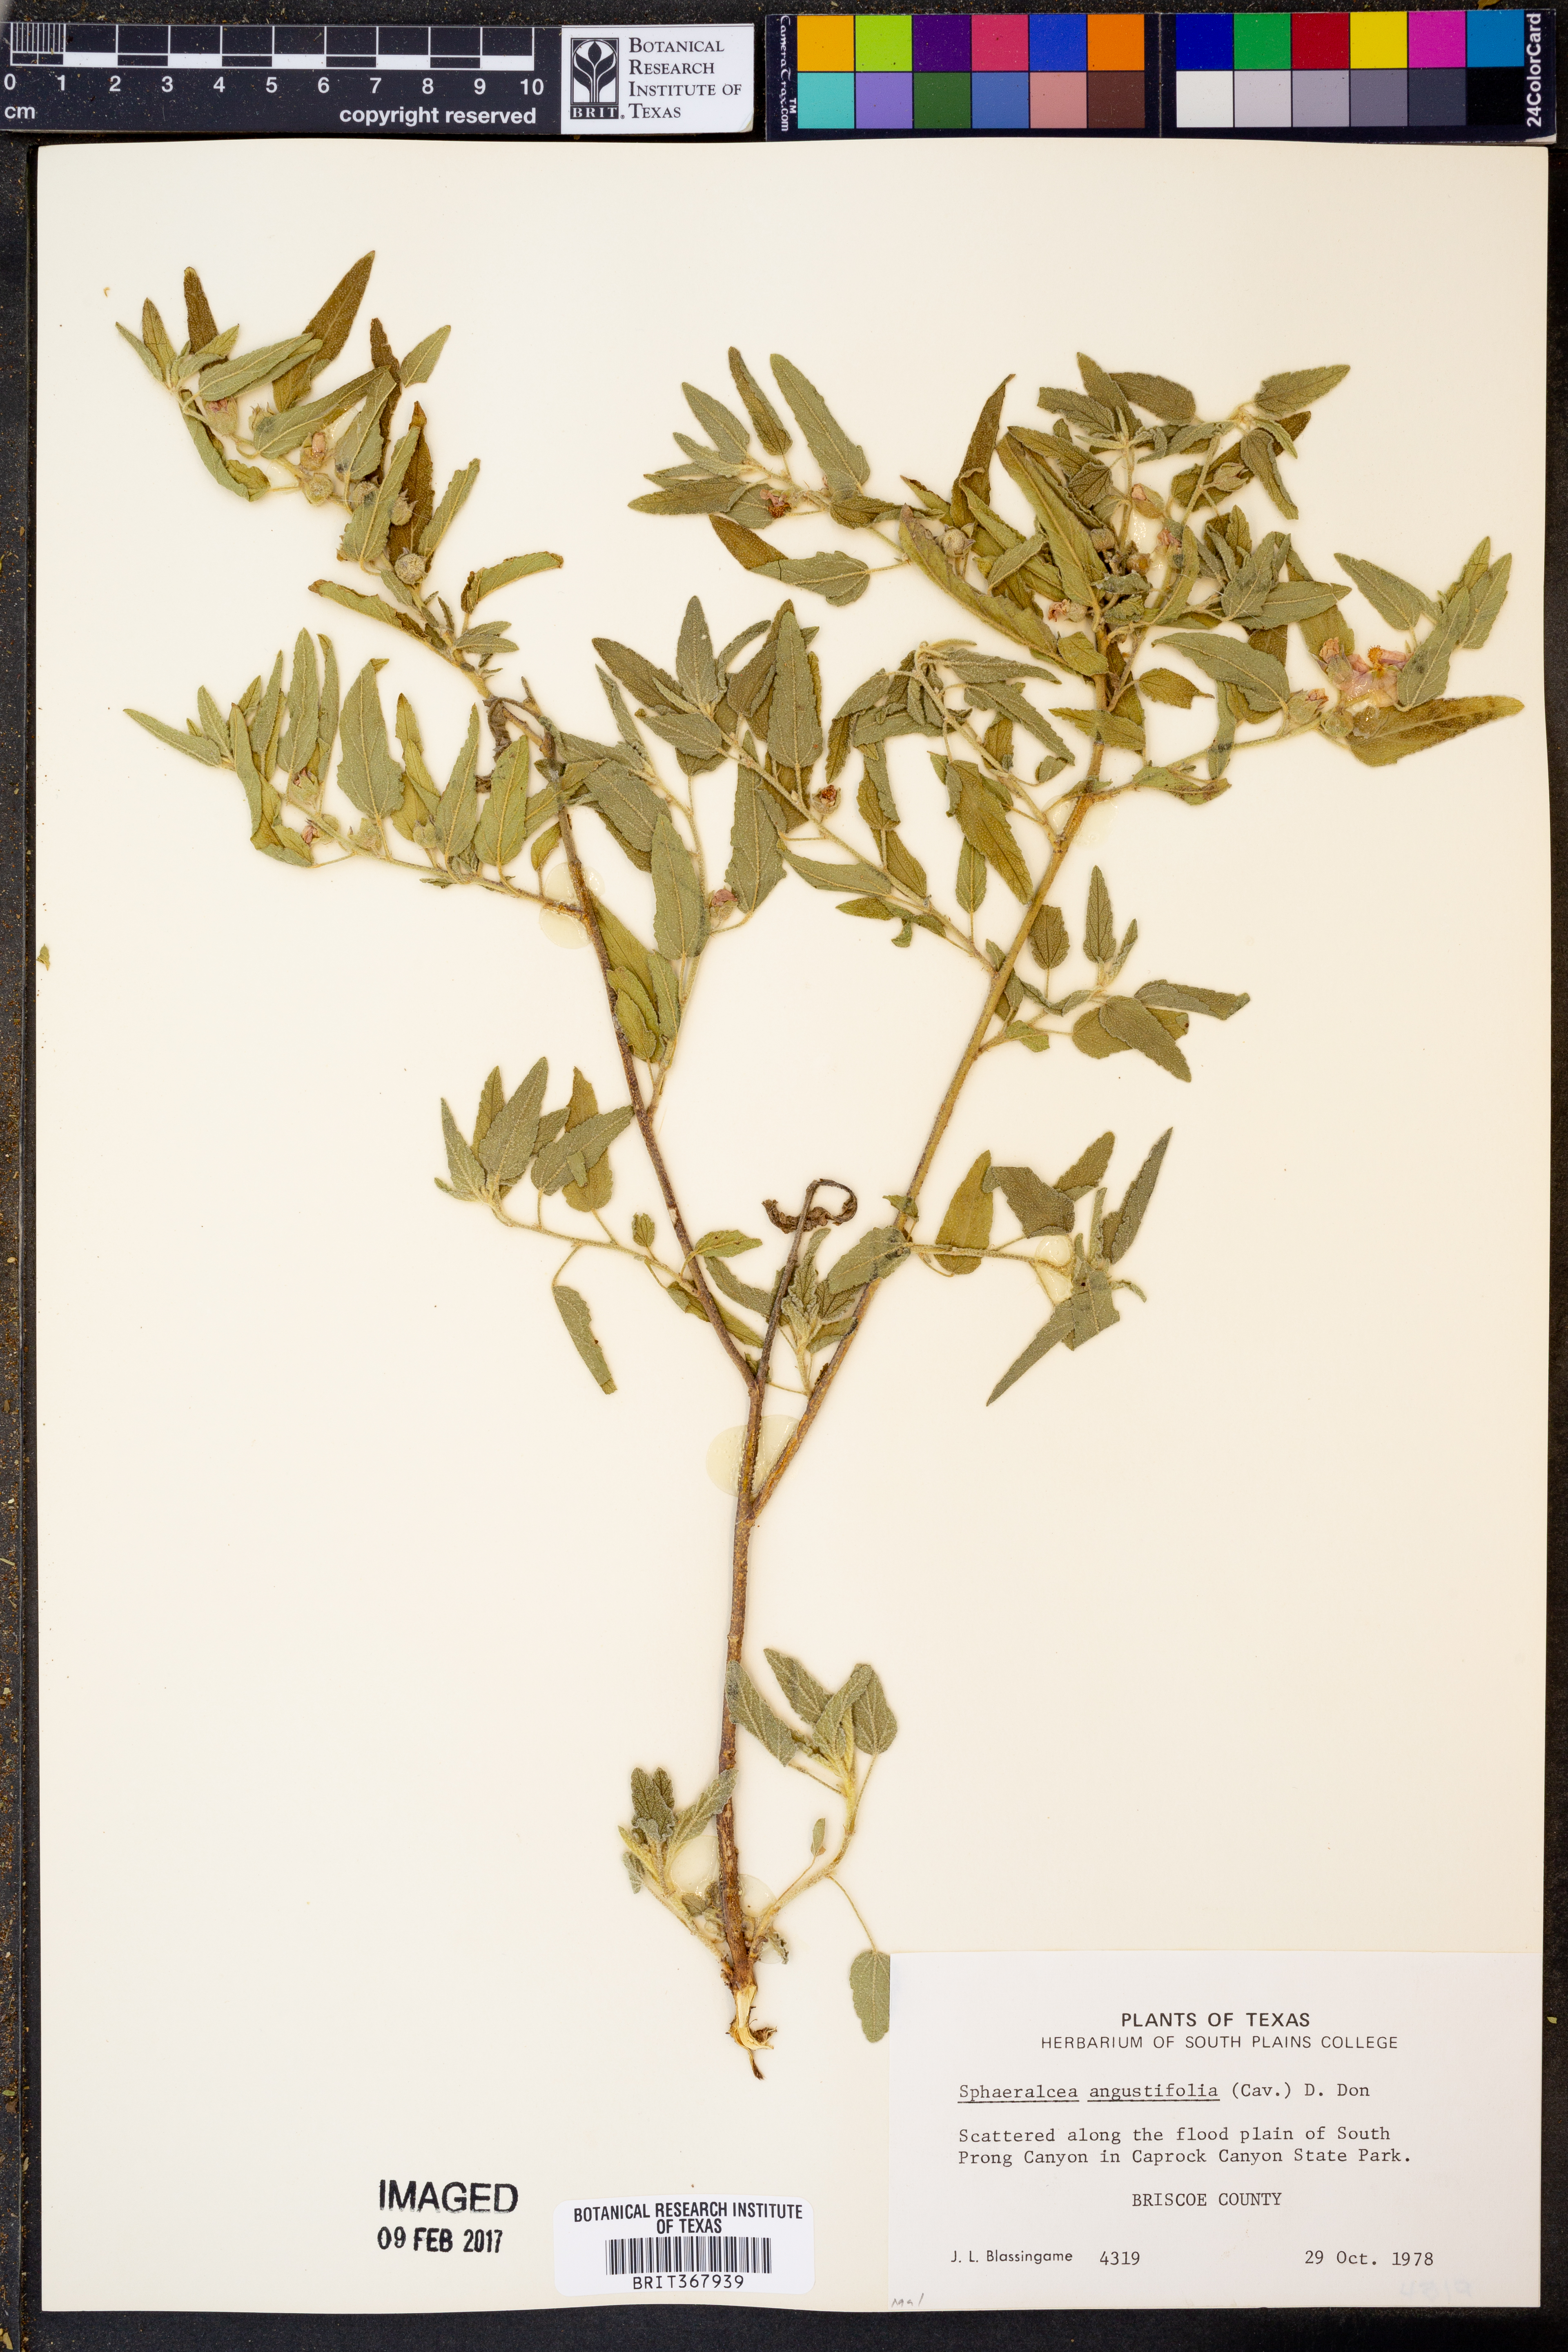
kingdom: Plantae
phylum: Tracheophyta
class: Magnoliopsida
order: Malvales
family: Malvaceae
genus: Sphaeralcea
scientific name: Sphaeralcea angustifolia
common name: Copper globe-mallow
